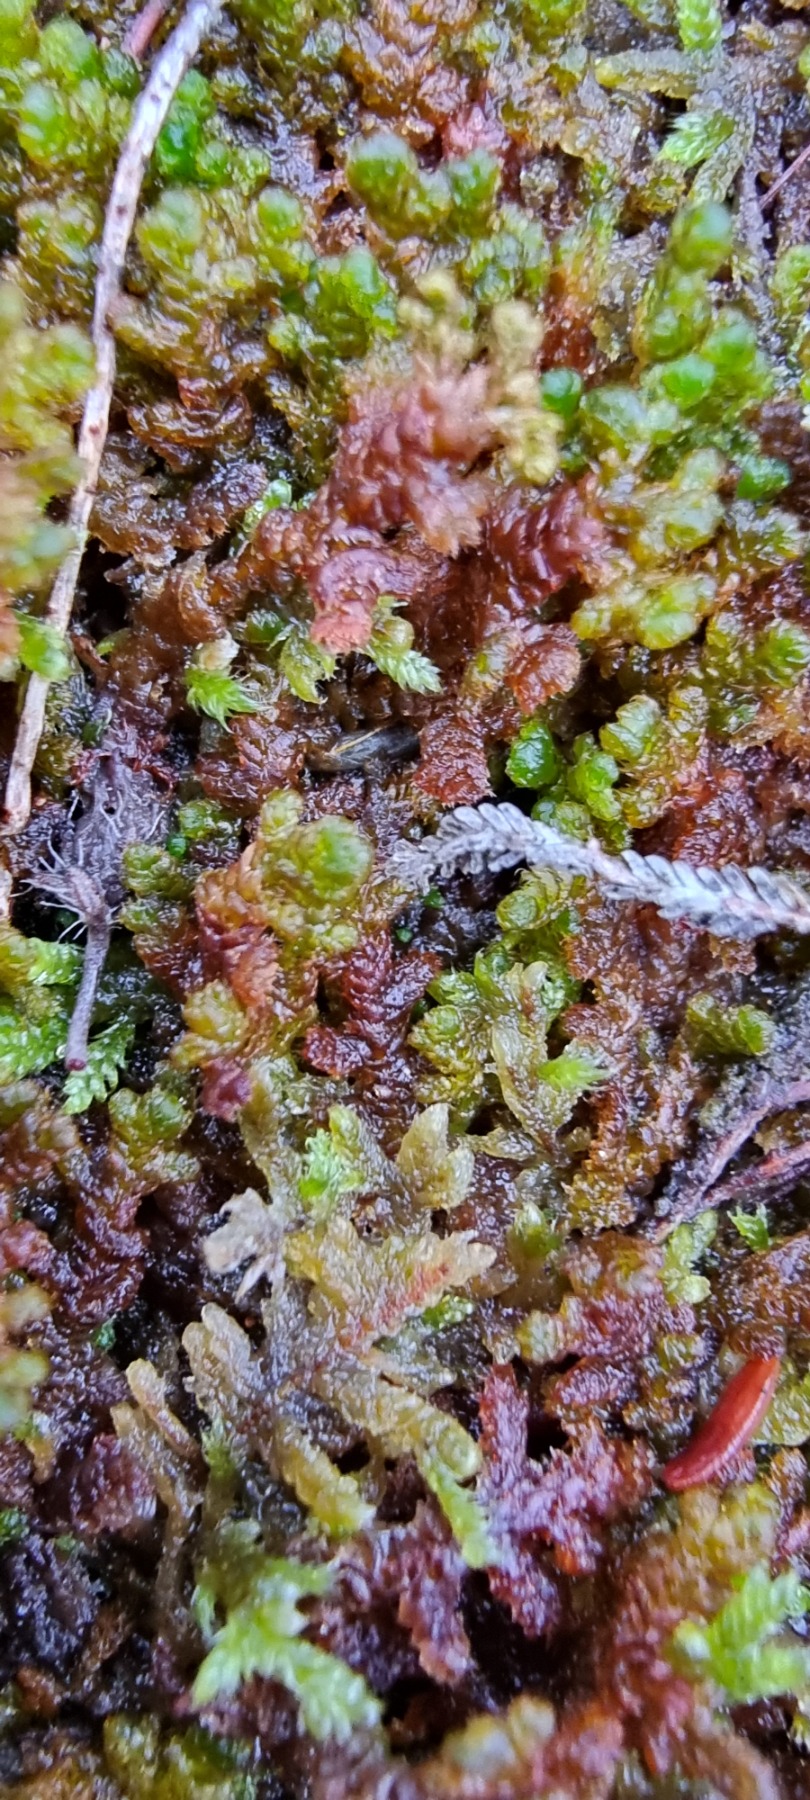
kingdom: Plantae
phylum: Marchantiophyta
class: Jungermanniopsida
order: Ptilidiales
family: Ptilidiaceae
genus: Ptilidium
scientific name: Ptilidium ciliare
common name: Almindelig frynsemos
